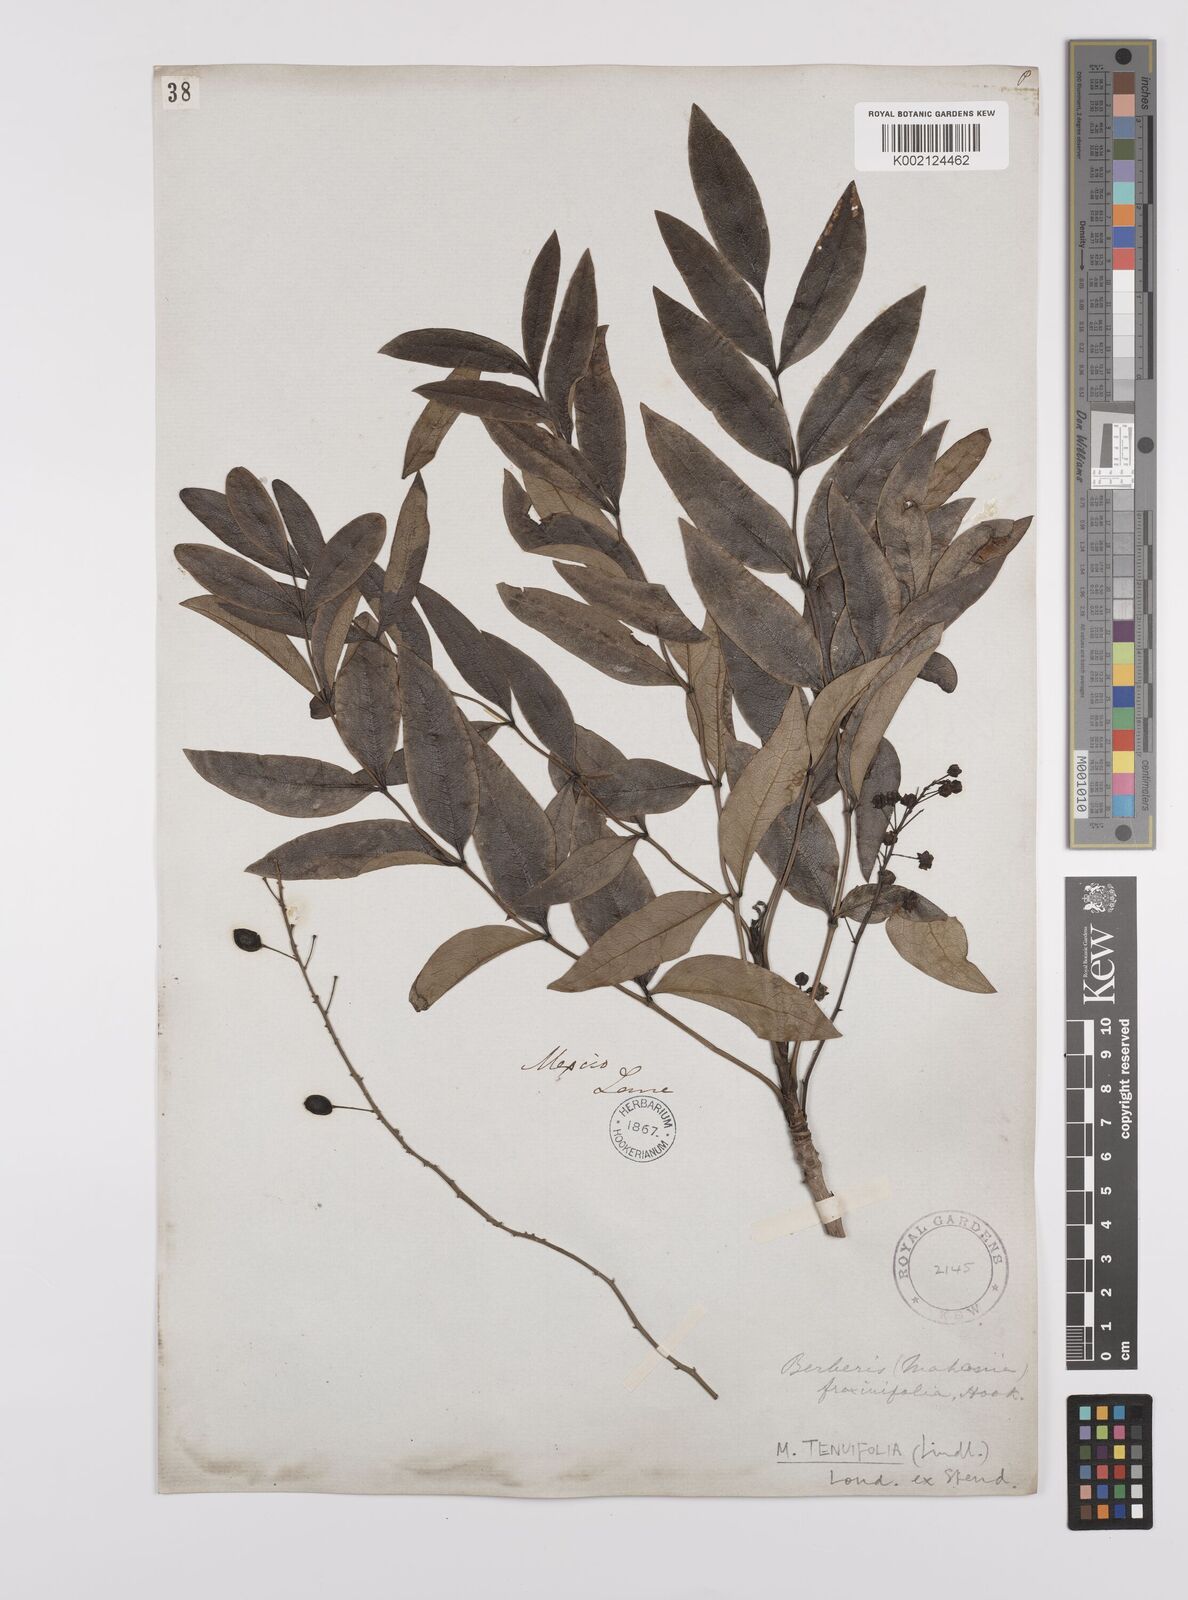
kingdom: Plantae
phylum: Tracheophyta
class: Magnoliopsida
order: Ranunculales
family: Berberidaceae
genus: Mahonia
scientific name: Mahonia tenuifolia
